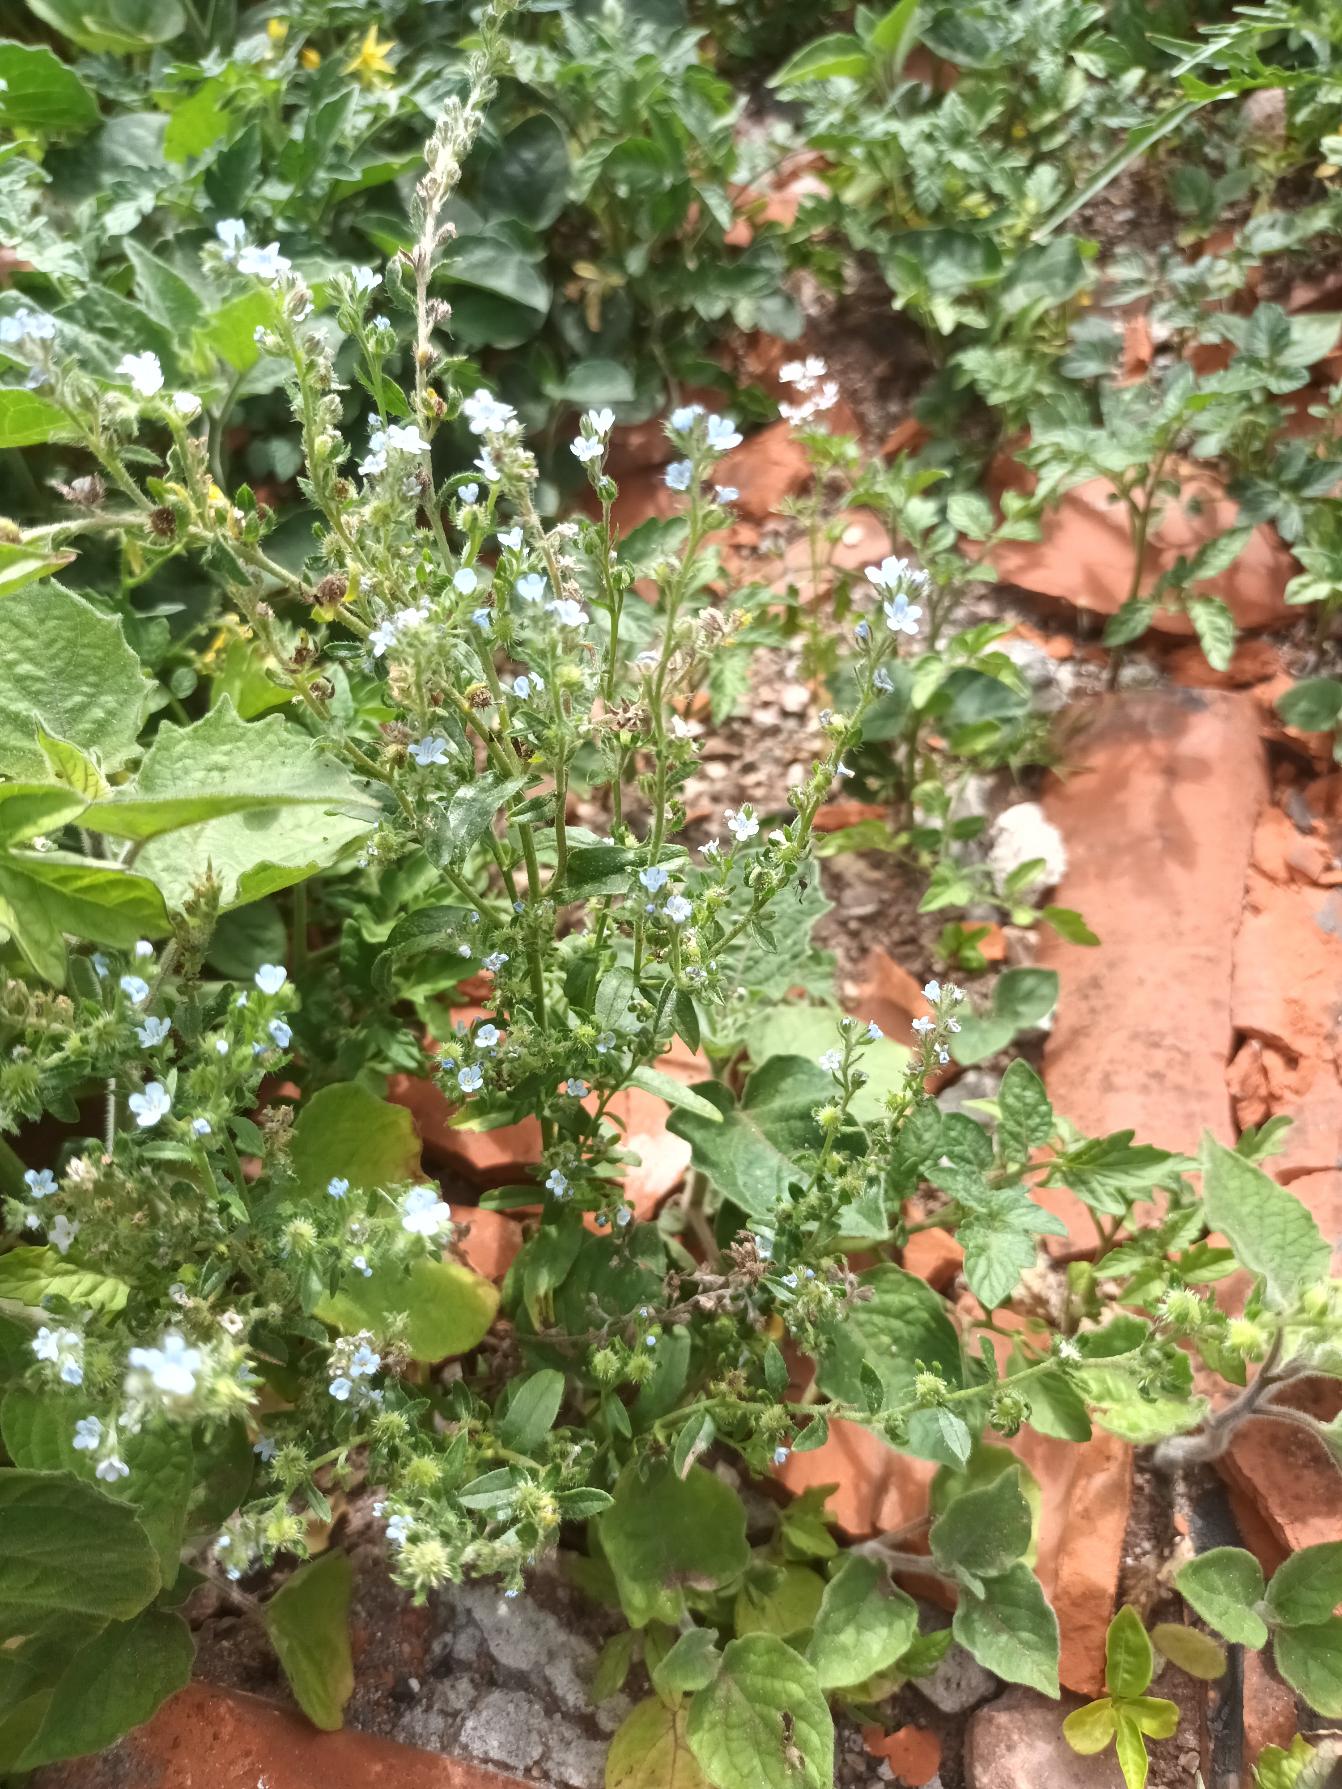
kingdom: Plantae
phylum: Tracheophyta
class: Magnoliopsida
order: Boraginales
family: Boraginaceae
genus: Lappula
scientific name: Lappula squarrosa
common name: Småhaget pigfrø
